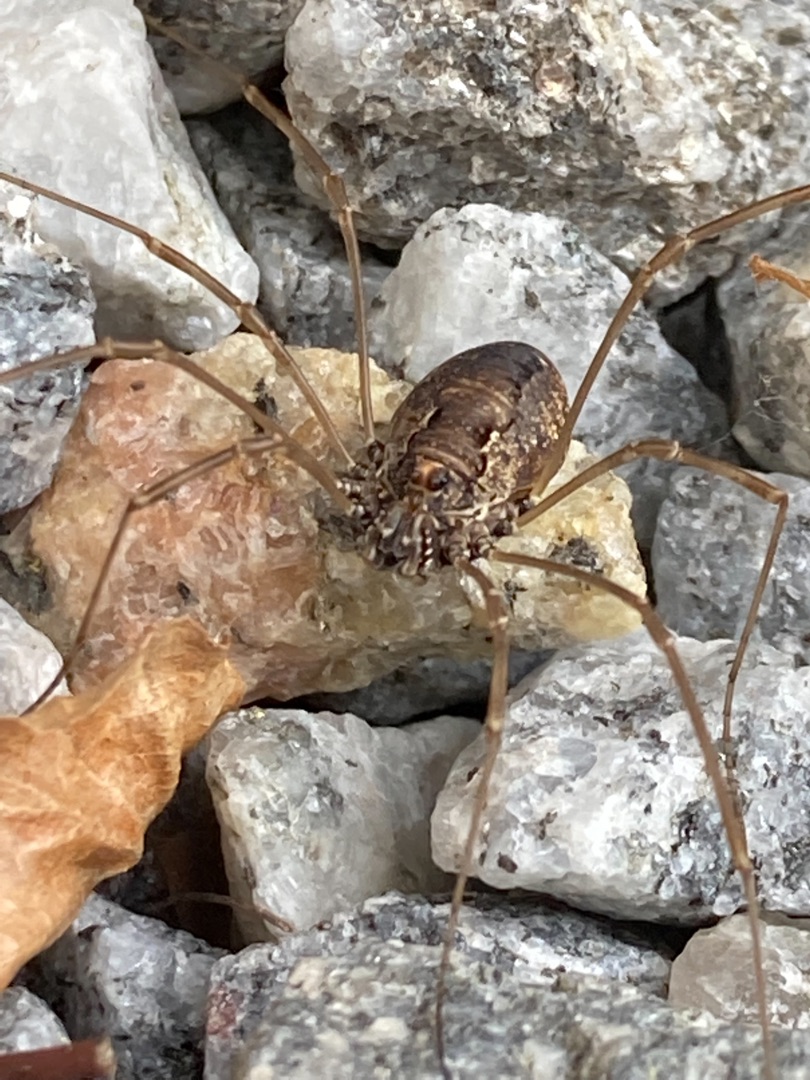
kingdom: Animalia
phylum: Arthropoda
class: Arachnida
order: Opiliones
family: Phalangiidae
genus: Platybunus
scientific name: Platybunus pinetorum
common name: Storøjet mejer
